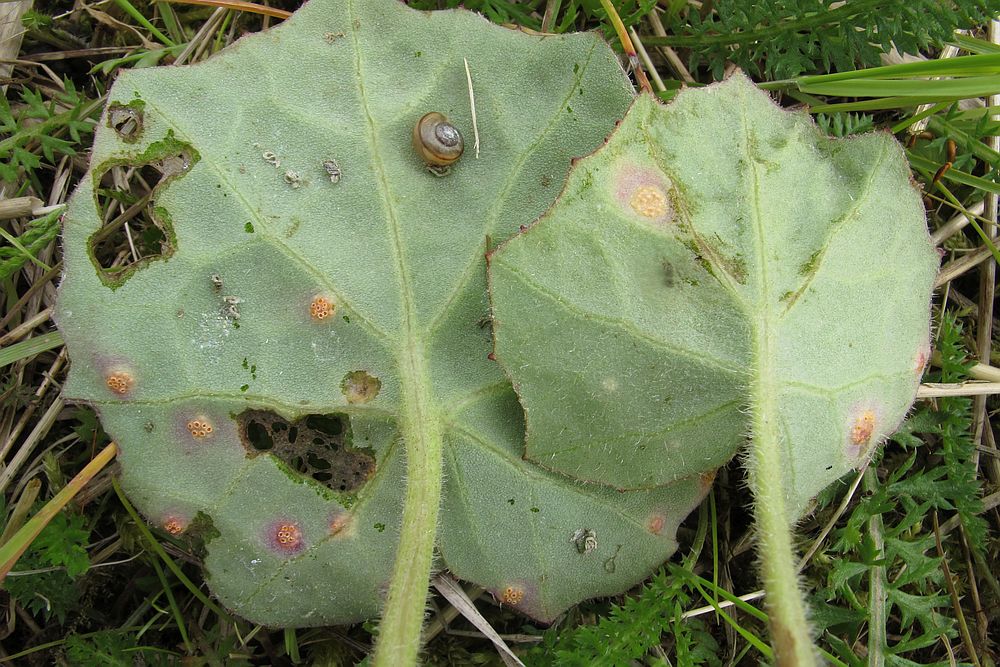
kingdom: Fungi
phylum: Basidiomycota
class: Pucciniomycetes
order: Pucciniales
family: Pucciniaceae
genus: Puccinia
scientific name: Puccinia poarum
